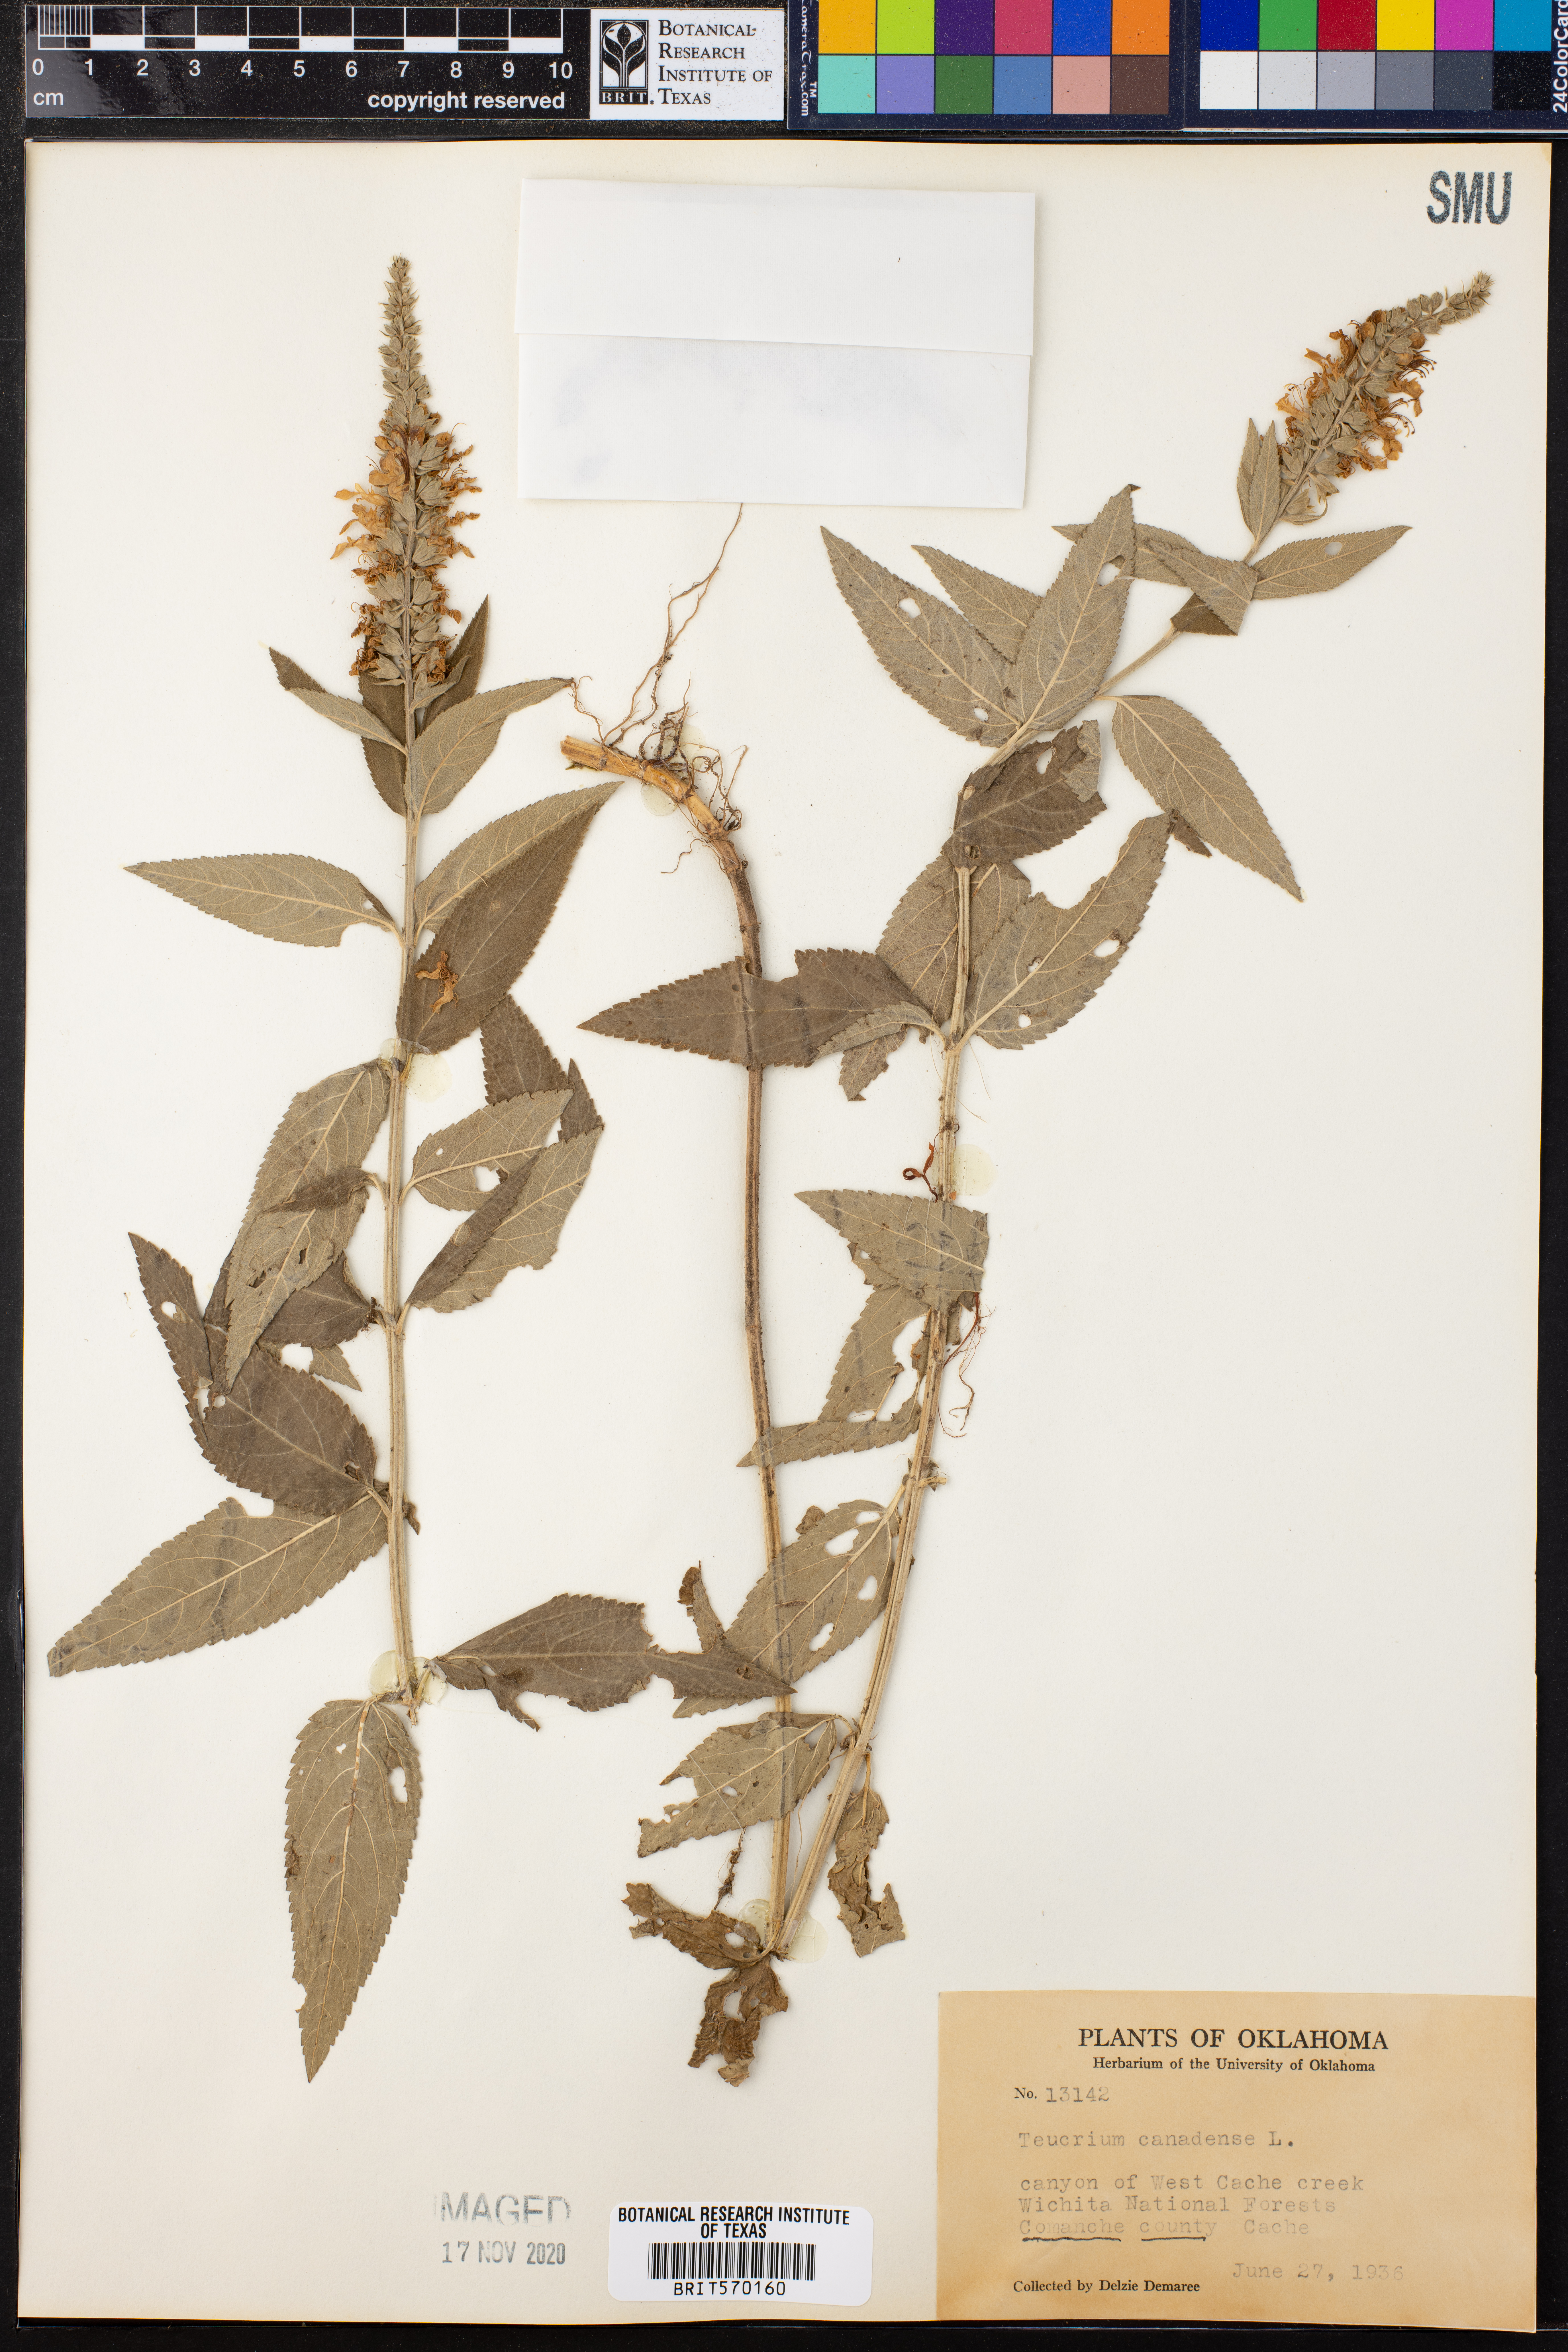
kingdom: Plantae
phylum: Tracheophyta
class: Magnoliopsida
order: Lamiales
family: Lamiaceae
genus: Teucrium
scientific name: Teucrium canadense
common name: American germander
